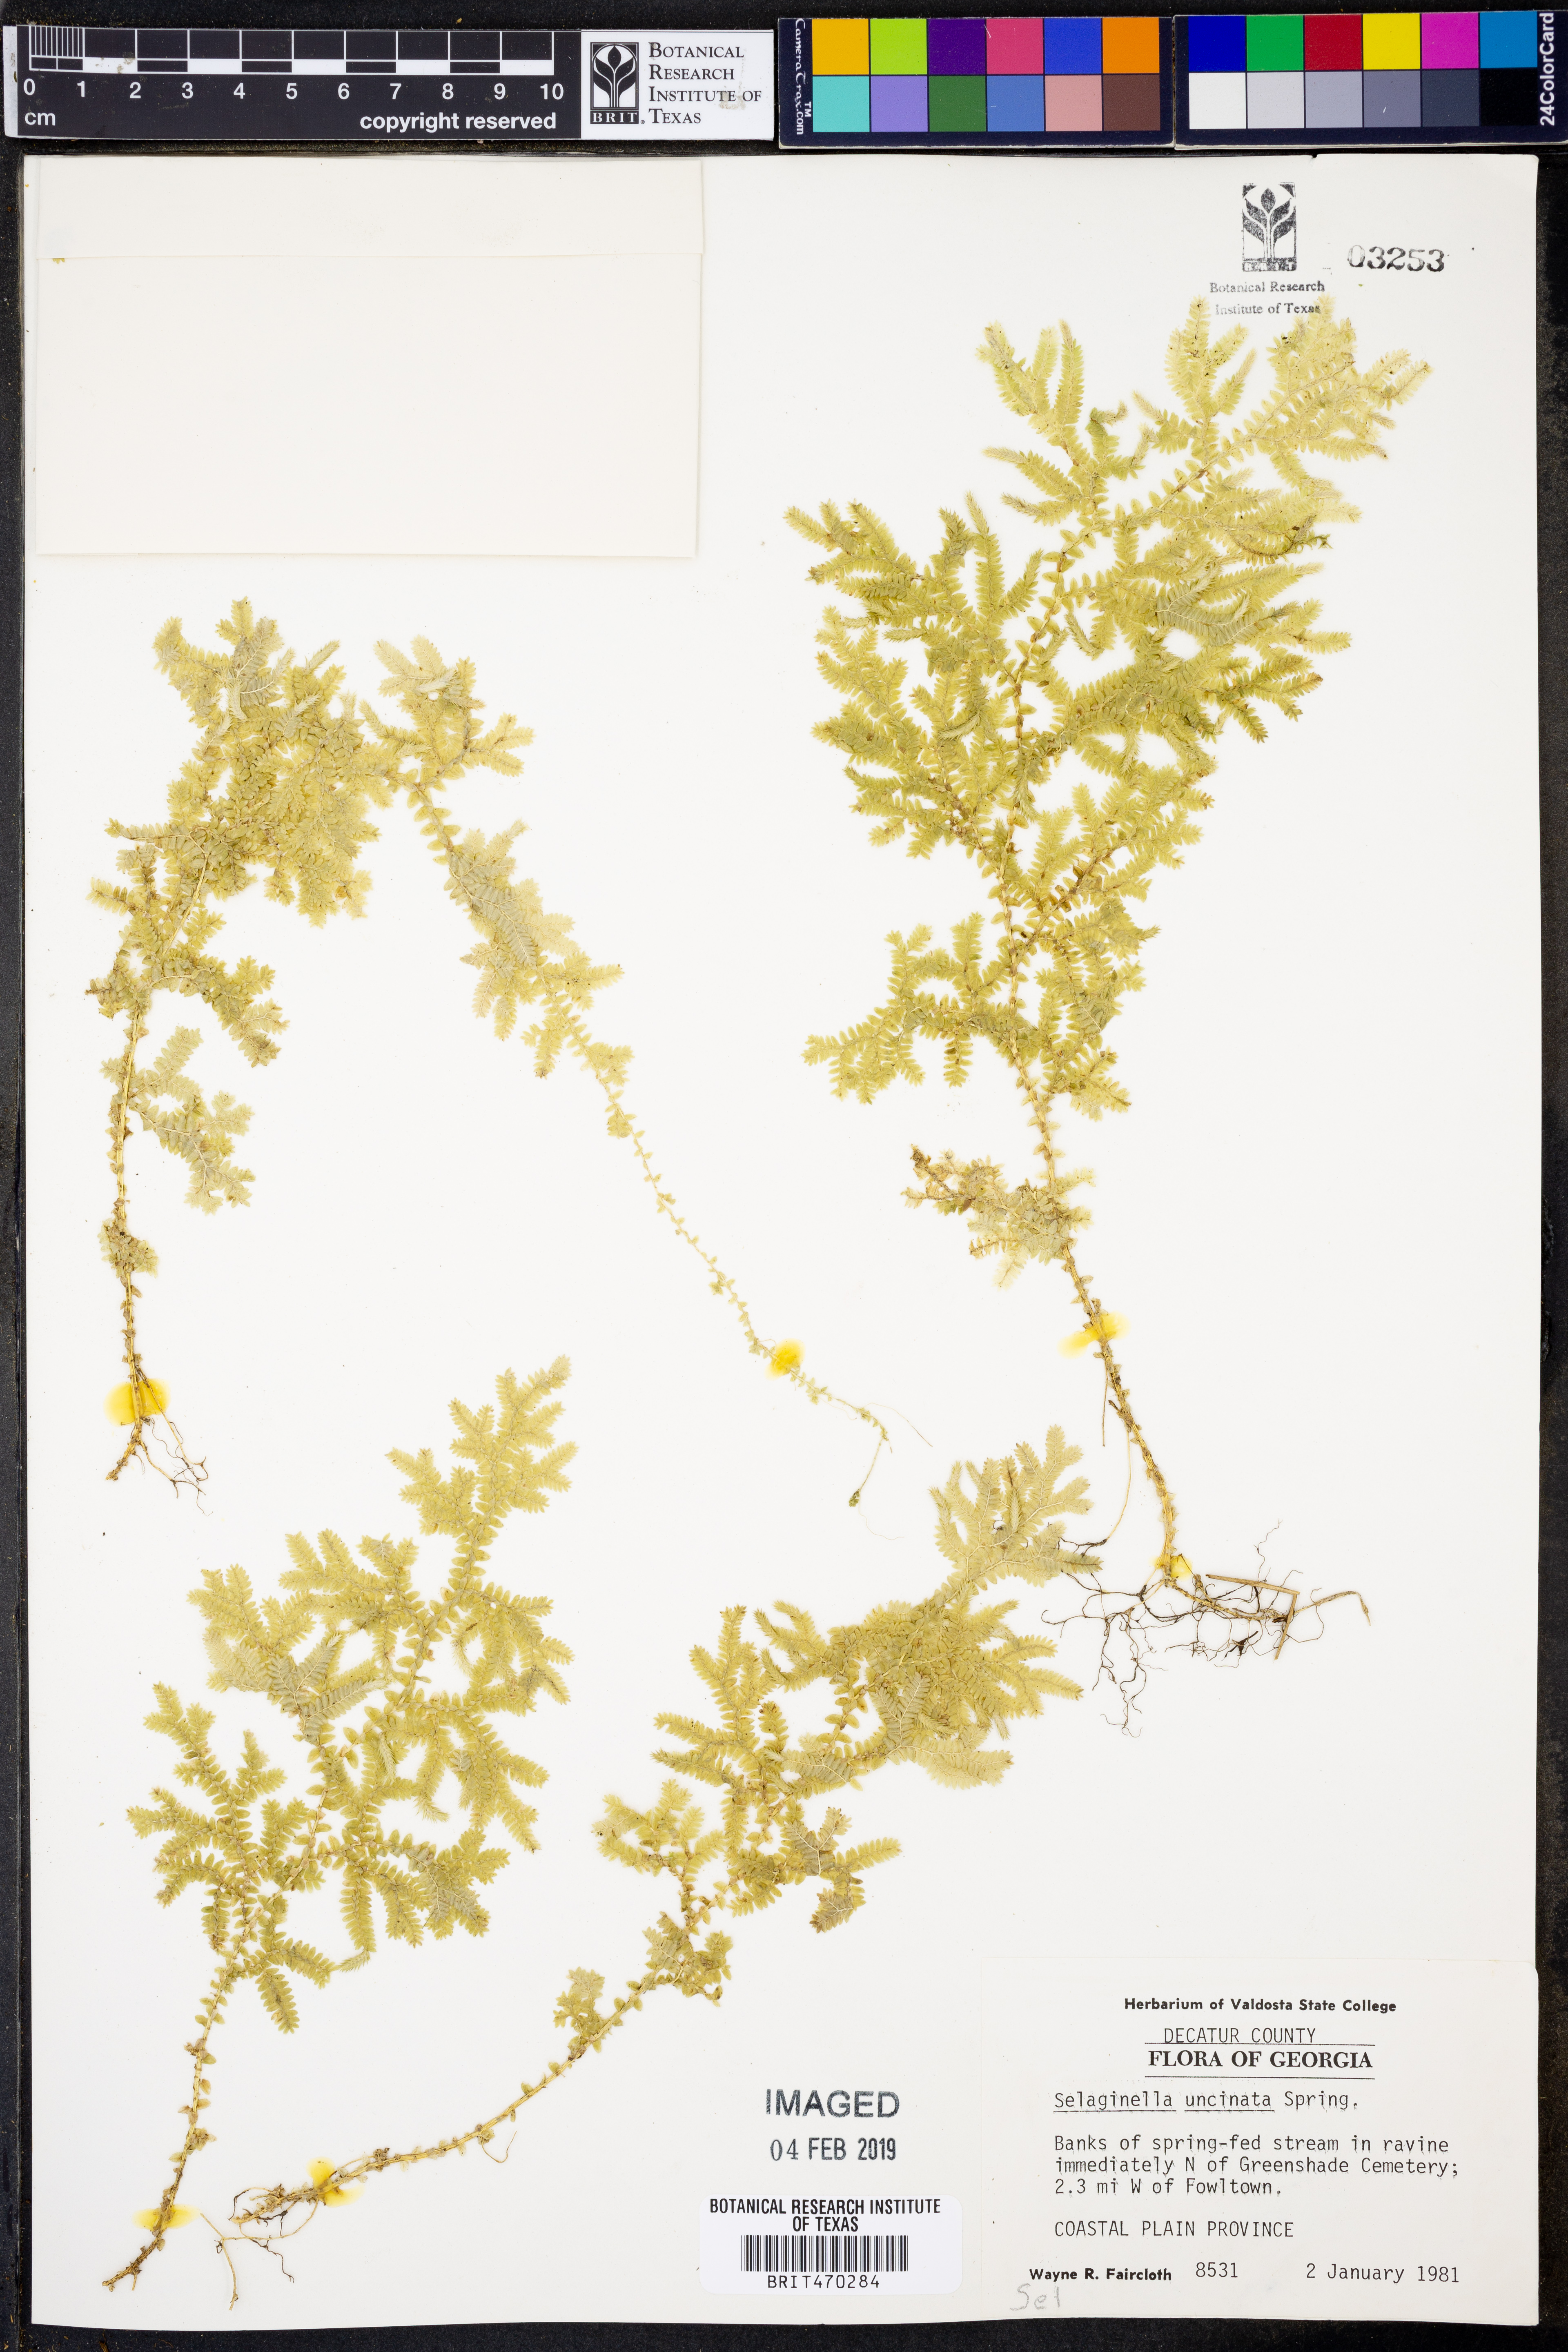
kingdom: Plantae
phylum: Tracheophyta
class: Lycopodiopsida
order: Selaginellales
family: Selaginellaceae
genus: Selaginella
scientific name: Selaginella uncinata
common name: Blue spikemoss
